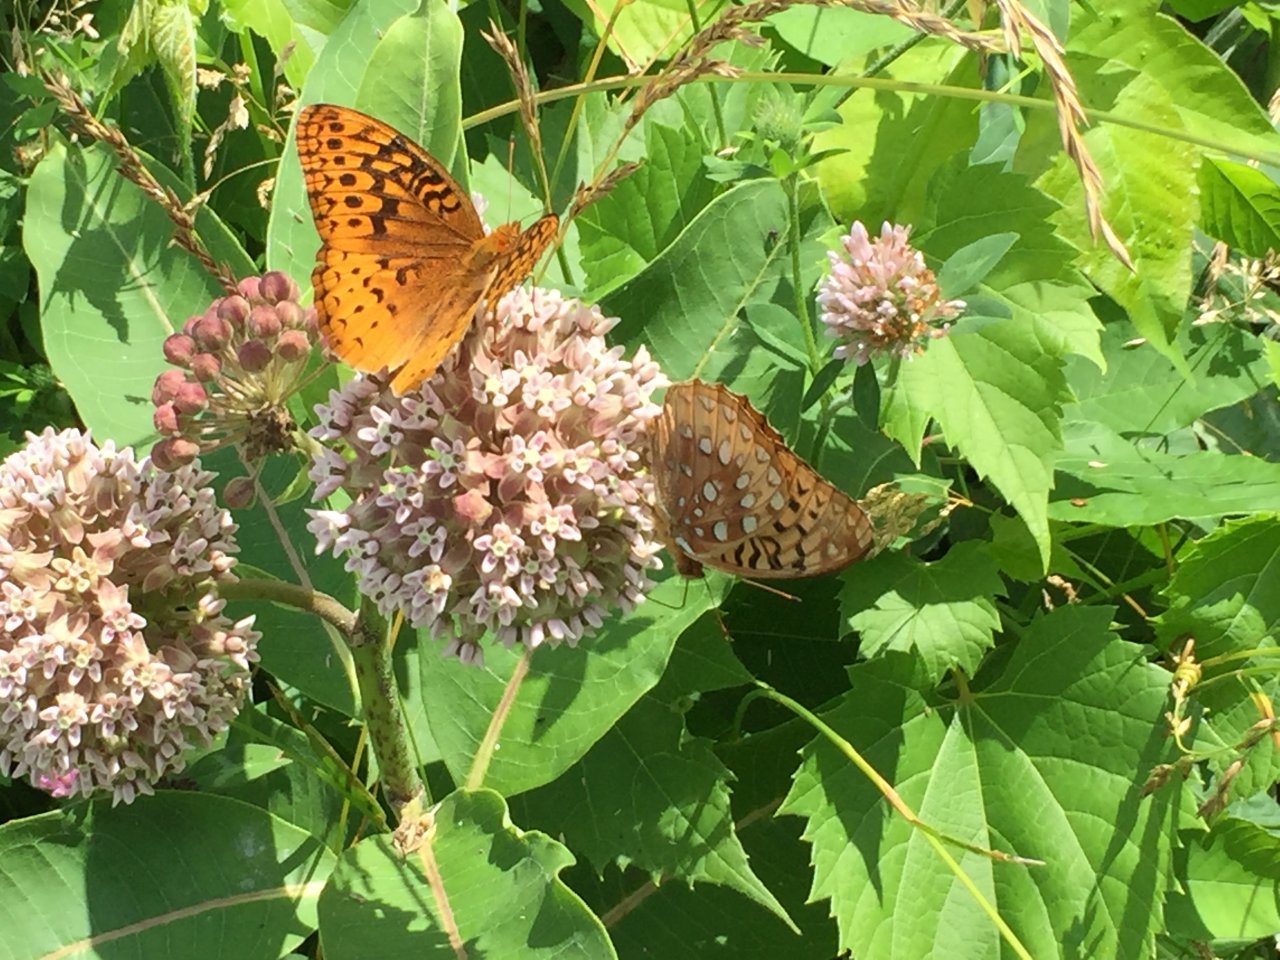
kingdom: Animalia
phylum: Arthropoda
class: Insecta
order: Lepidoptera
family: Nymphalidae
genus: Speyeria
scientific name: Speyeria cybele
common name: Great Spangled Fritillary
